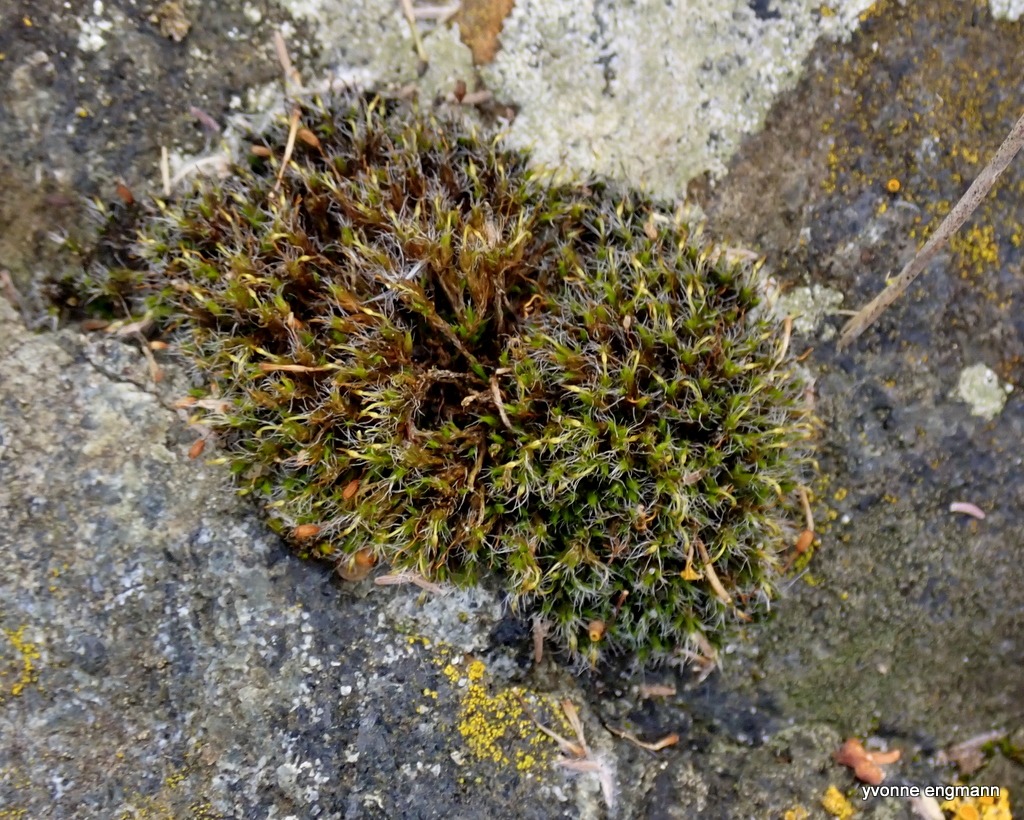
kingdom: Plantae
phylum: Bryophyta
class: Bryopsida
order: Grimmiales
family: Grimmiaceae
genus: Grimmia
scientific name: Grimmia pulvinata
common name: Pude-gråmos
